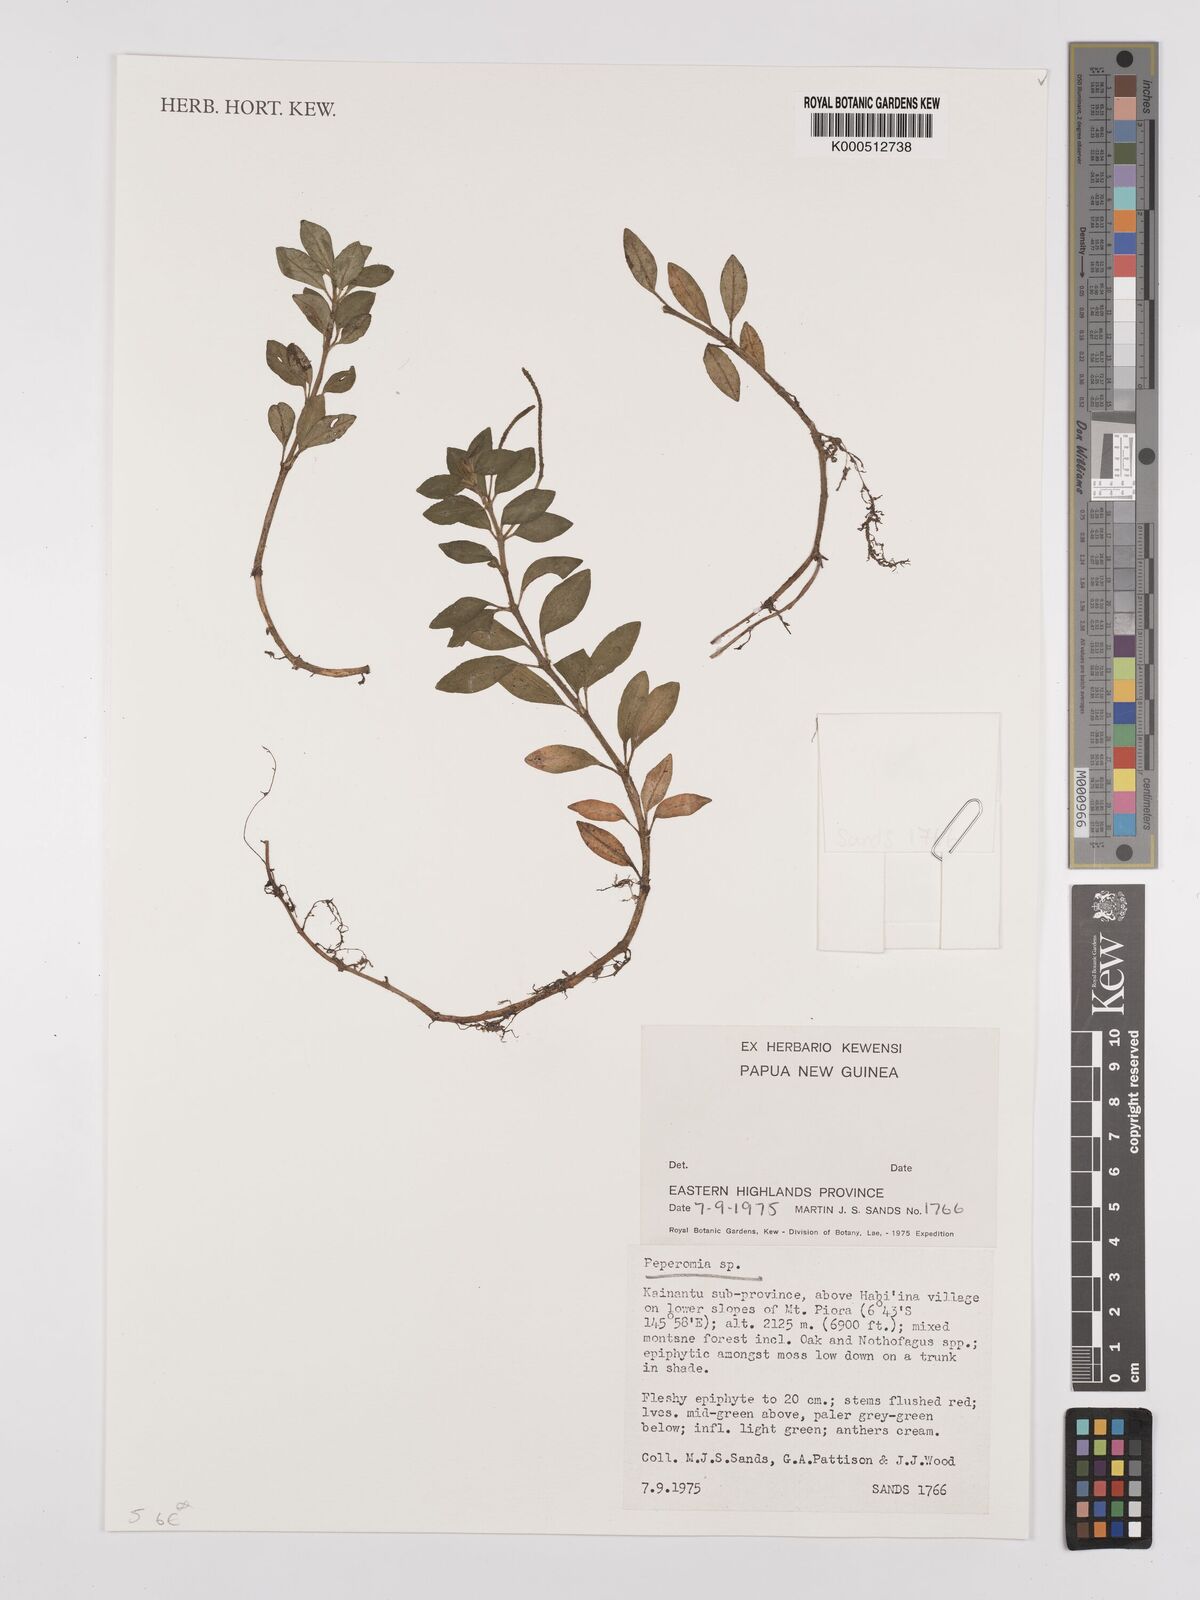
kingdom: Plantae
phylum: Tracheophyta
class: Magnoliopsida
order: Piperales
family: Piperaceae
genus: Piper
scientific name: Piper
